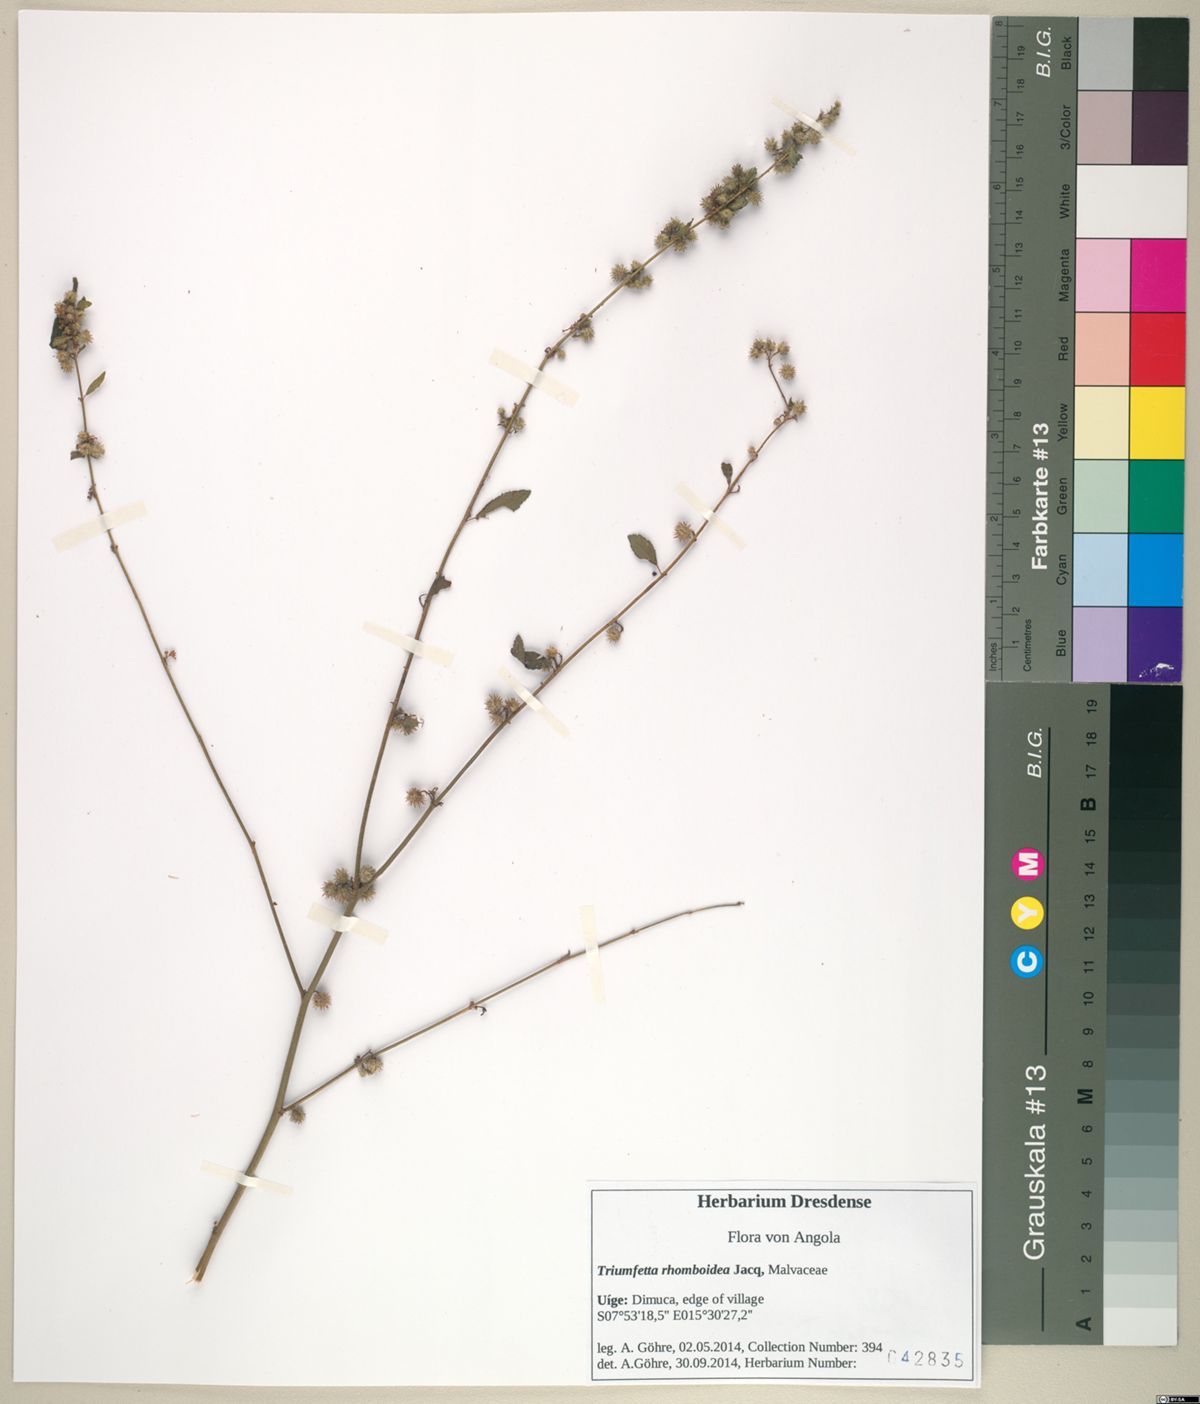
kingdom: Plantae
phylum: Tracheophyta
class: Magnoliopsida
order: Malvales
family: Malvaceae
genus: Triumfetta
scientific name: Triumfetta rhomboidea
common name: Diamond burbark
